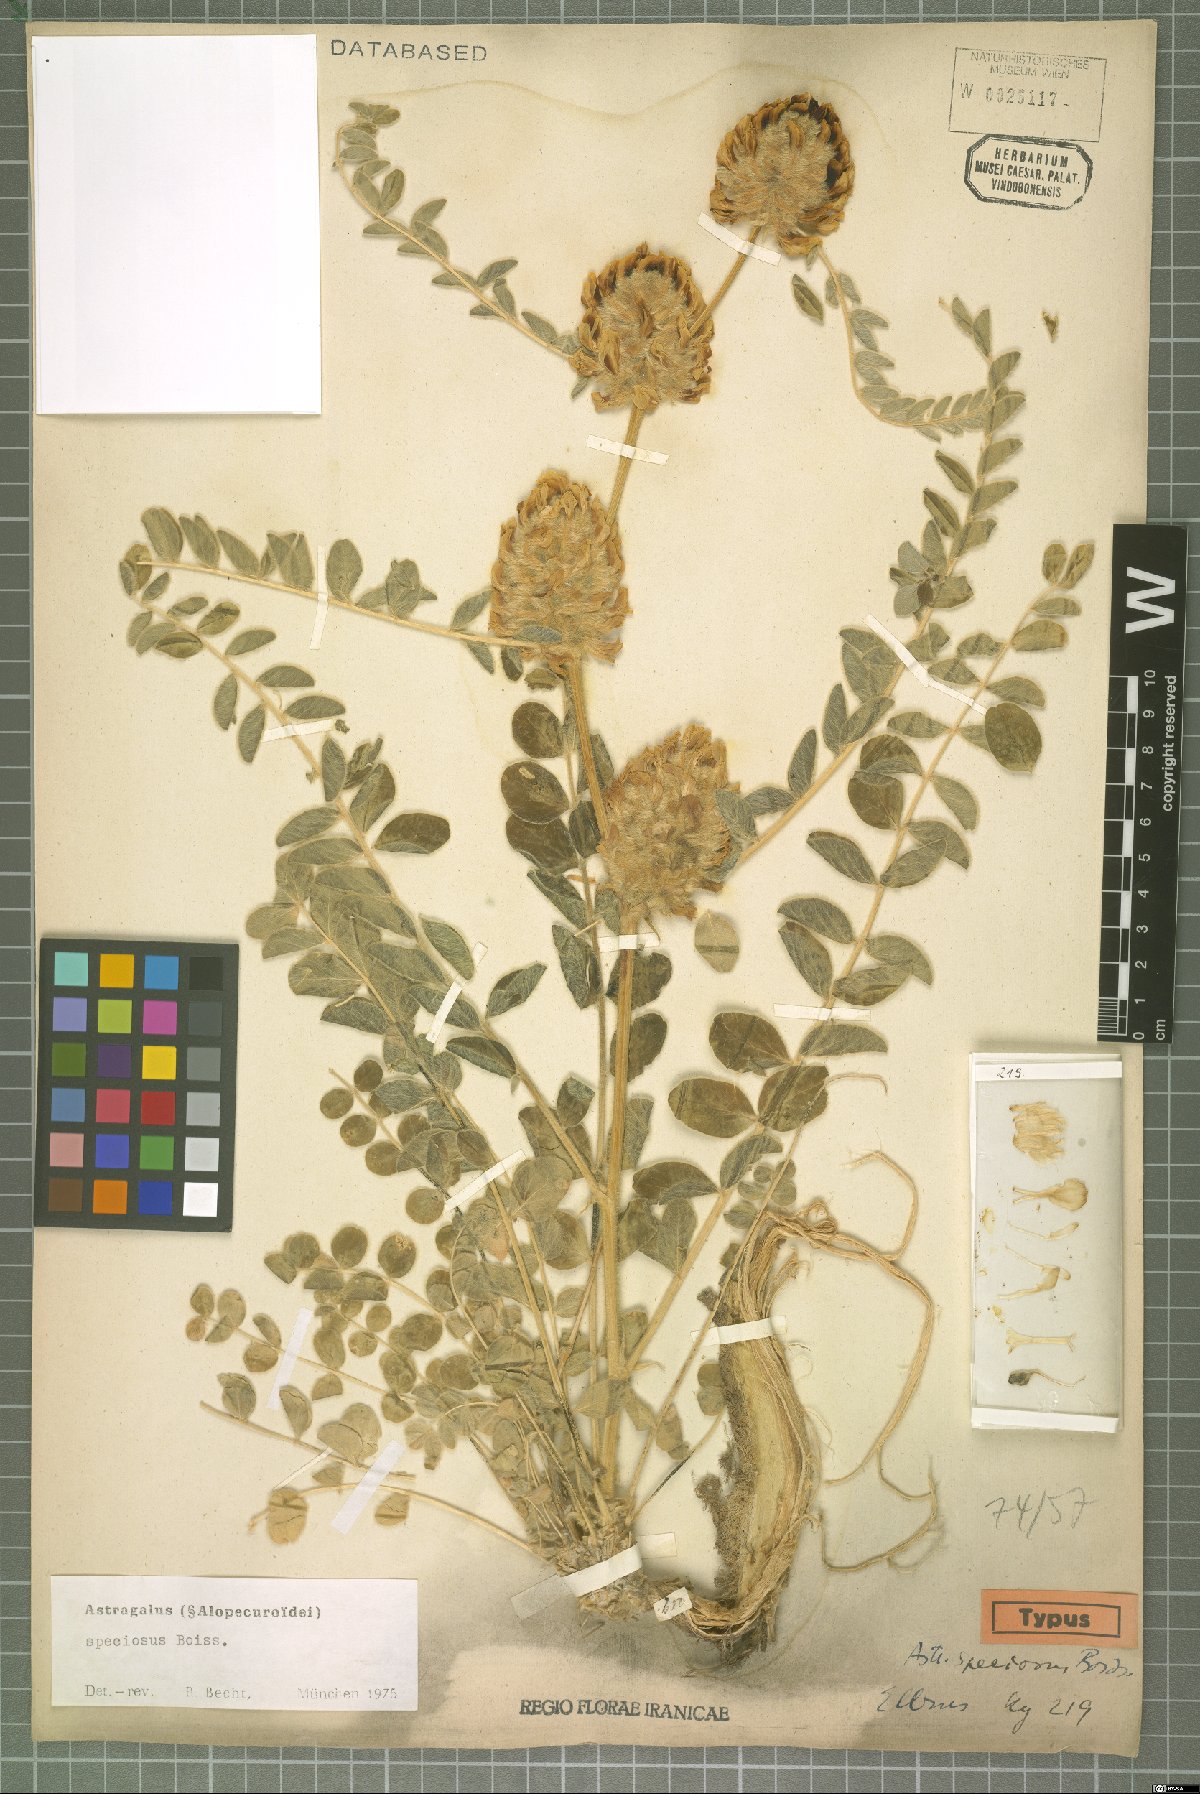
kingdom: Plantae
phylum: Tracheophyta
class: Magnoliopsida
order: Fabales
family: Fabaceae
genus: Astragalus
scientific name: Astragalus speciosus
